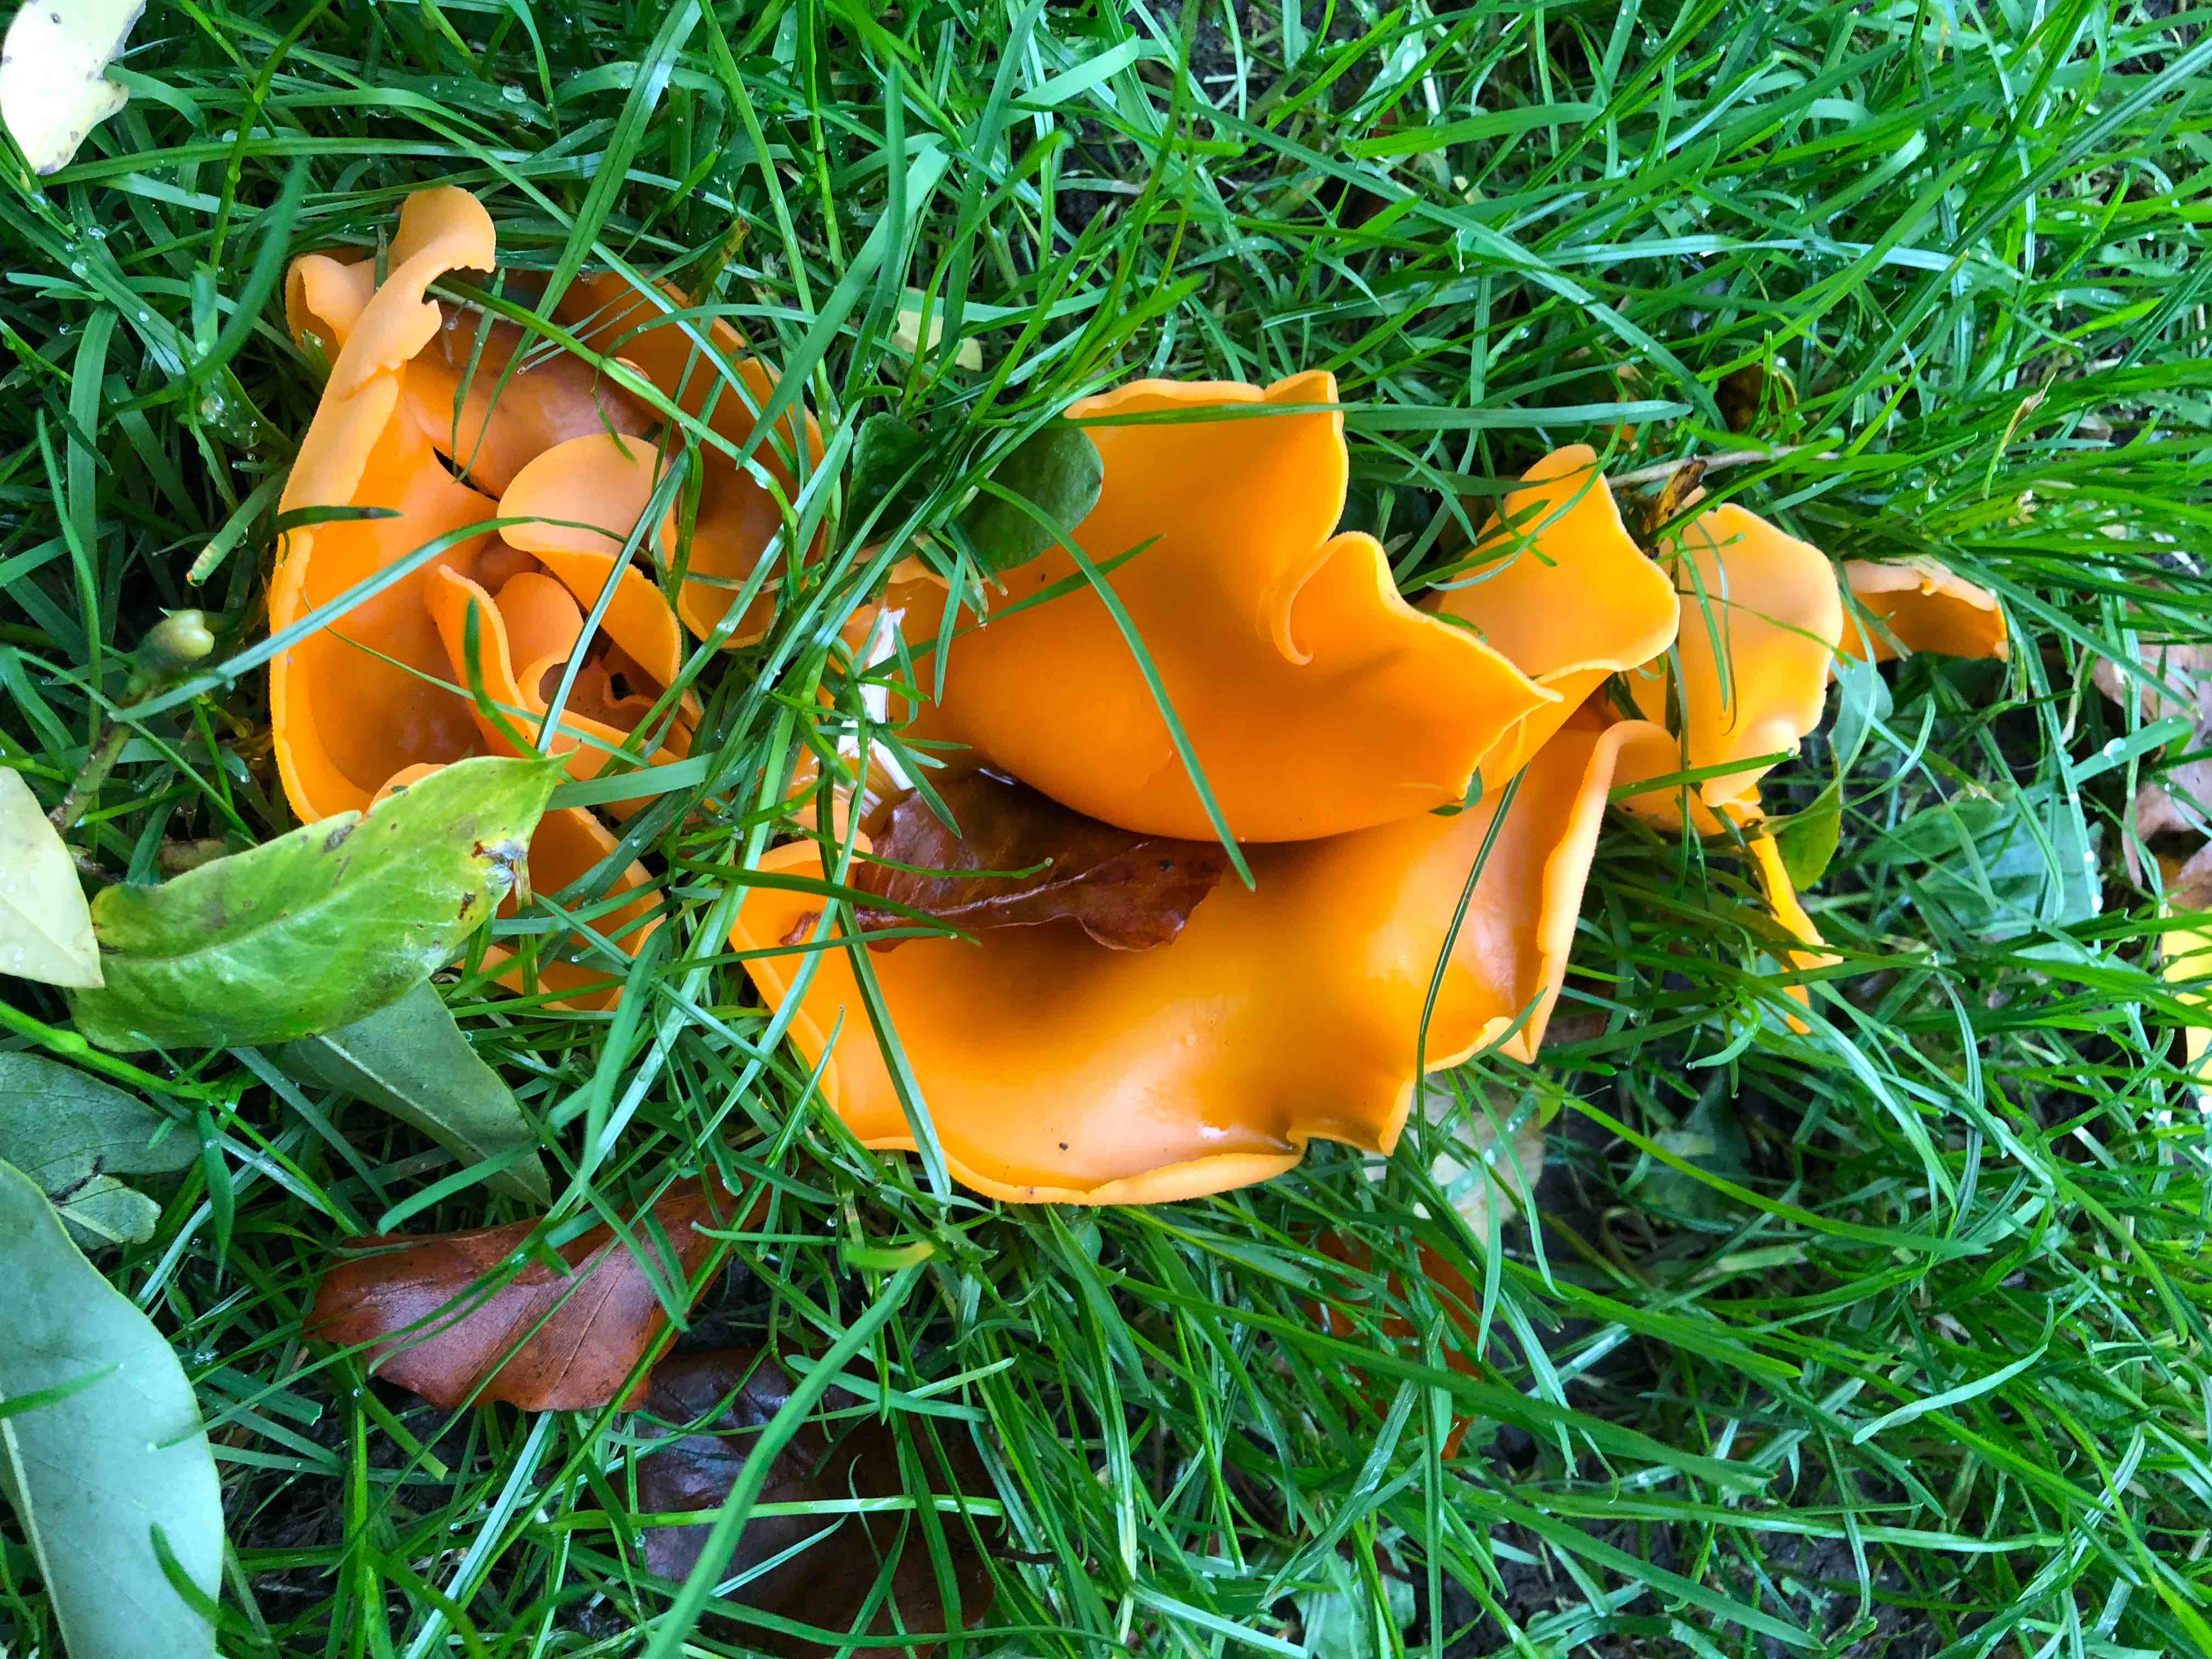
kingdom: Fungi
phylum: Ascomycota
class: Pezizomycetes
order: Pezizales
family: Pyronemataceae
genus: Aleuria
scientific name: Aleuria aurantia
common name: almindelig orangebæger
